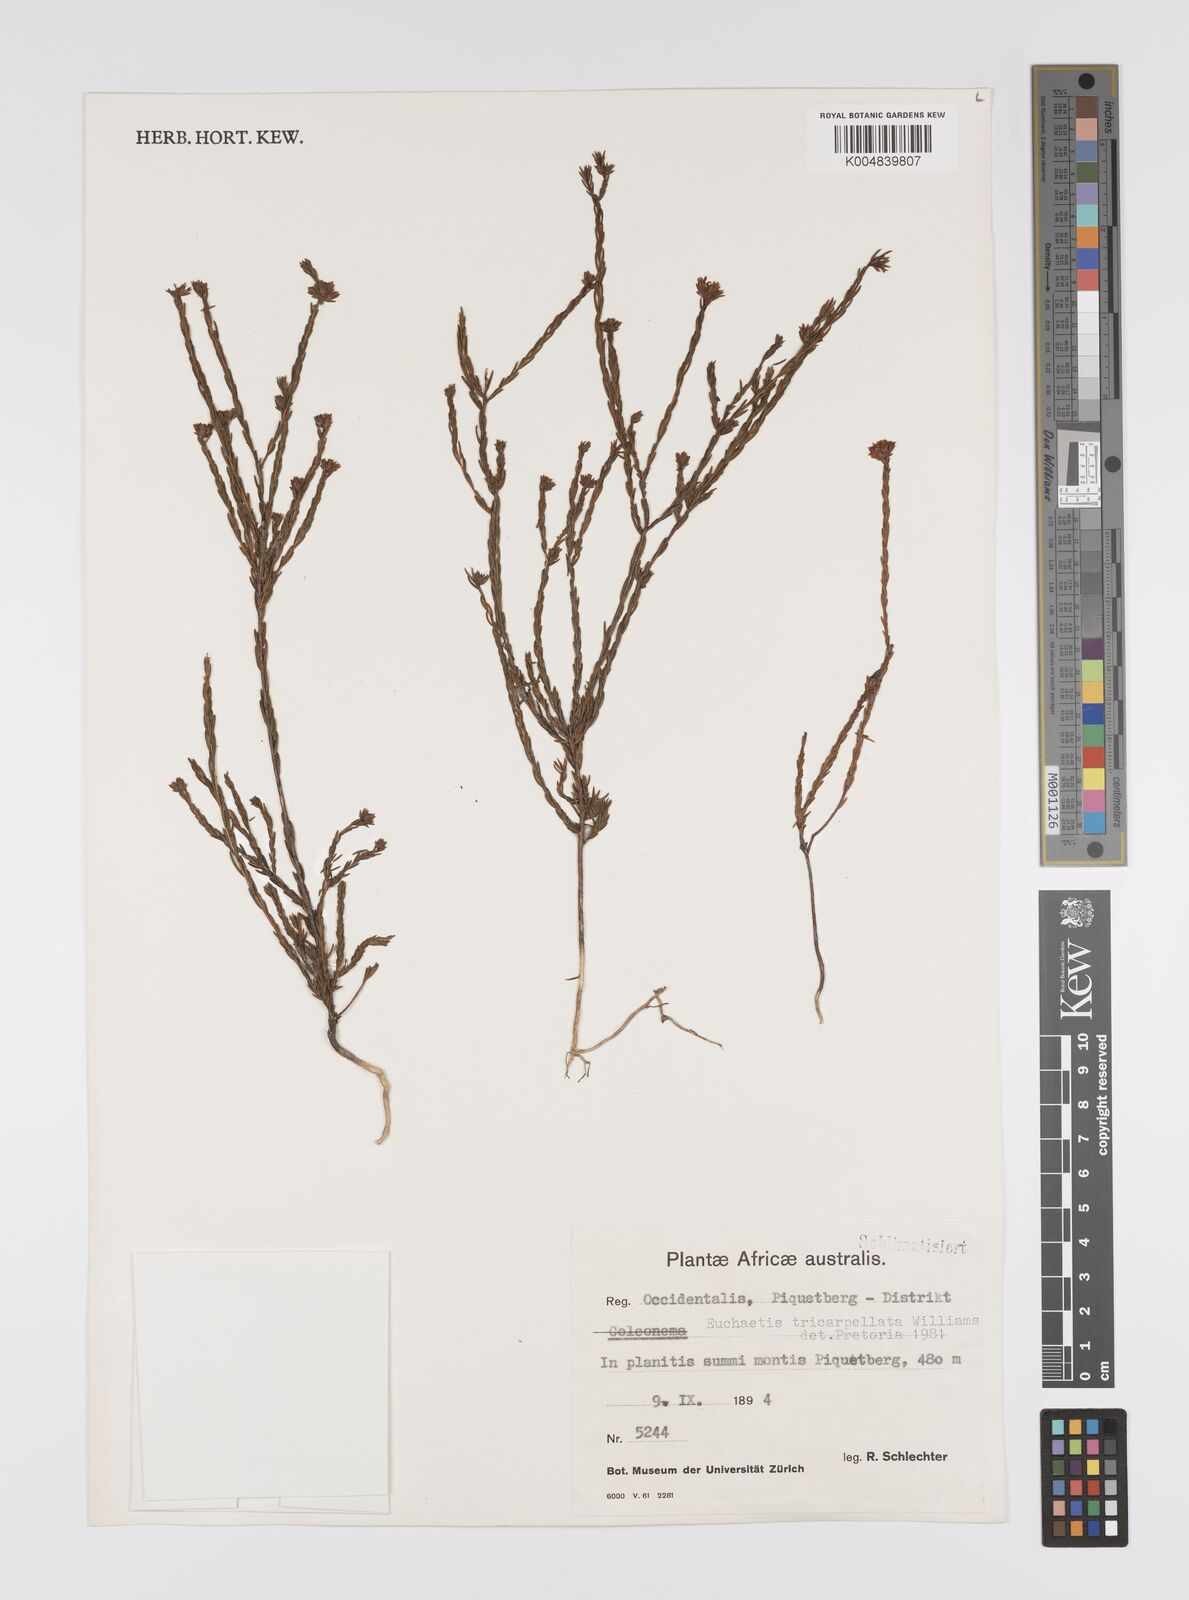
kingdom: Plantae
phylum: Tracheophyta
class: Magnoliopsida
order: Sapindales
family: Rutaceae
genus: Euchaetis
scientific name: Euchaetis tricarpellata
